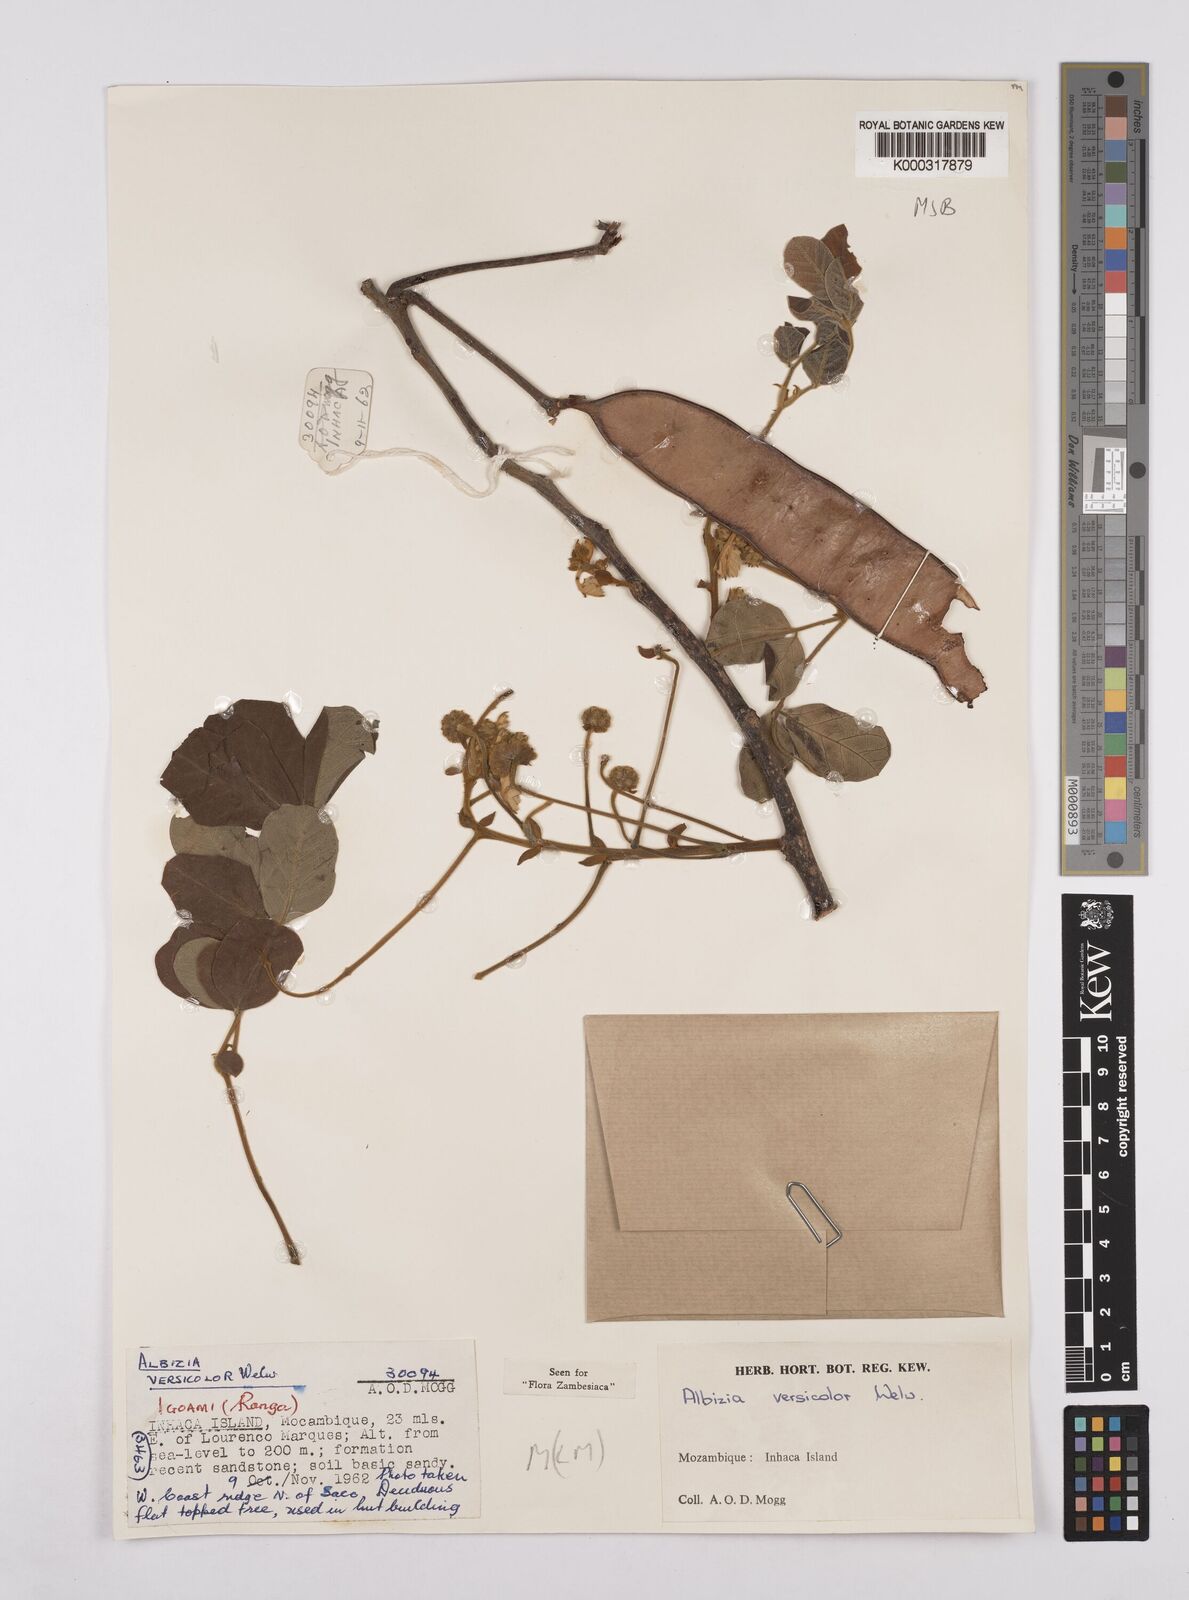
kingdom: Plantae
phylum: Tracheophyta
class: Magnoliopsida
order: Fabales
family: Fabaceae
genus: Albizia
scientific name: Albizia versicolor
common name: Poisonpod
